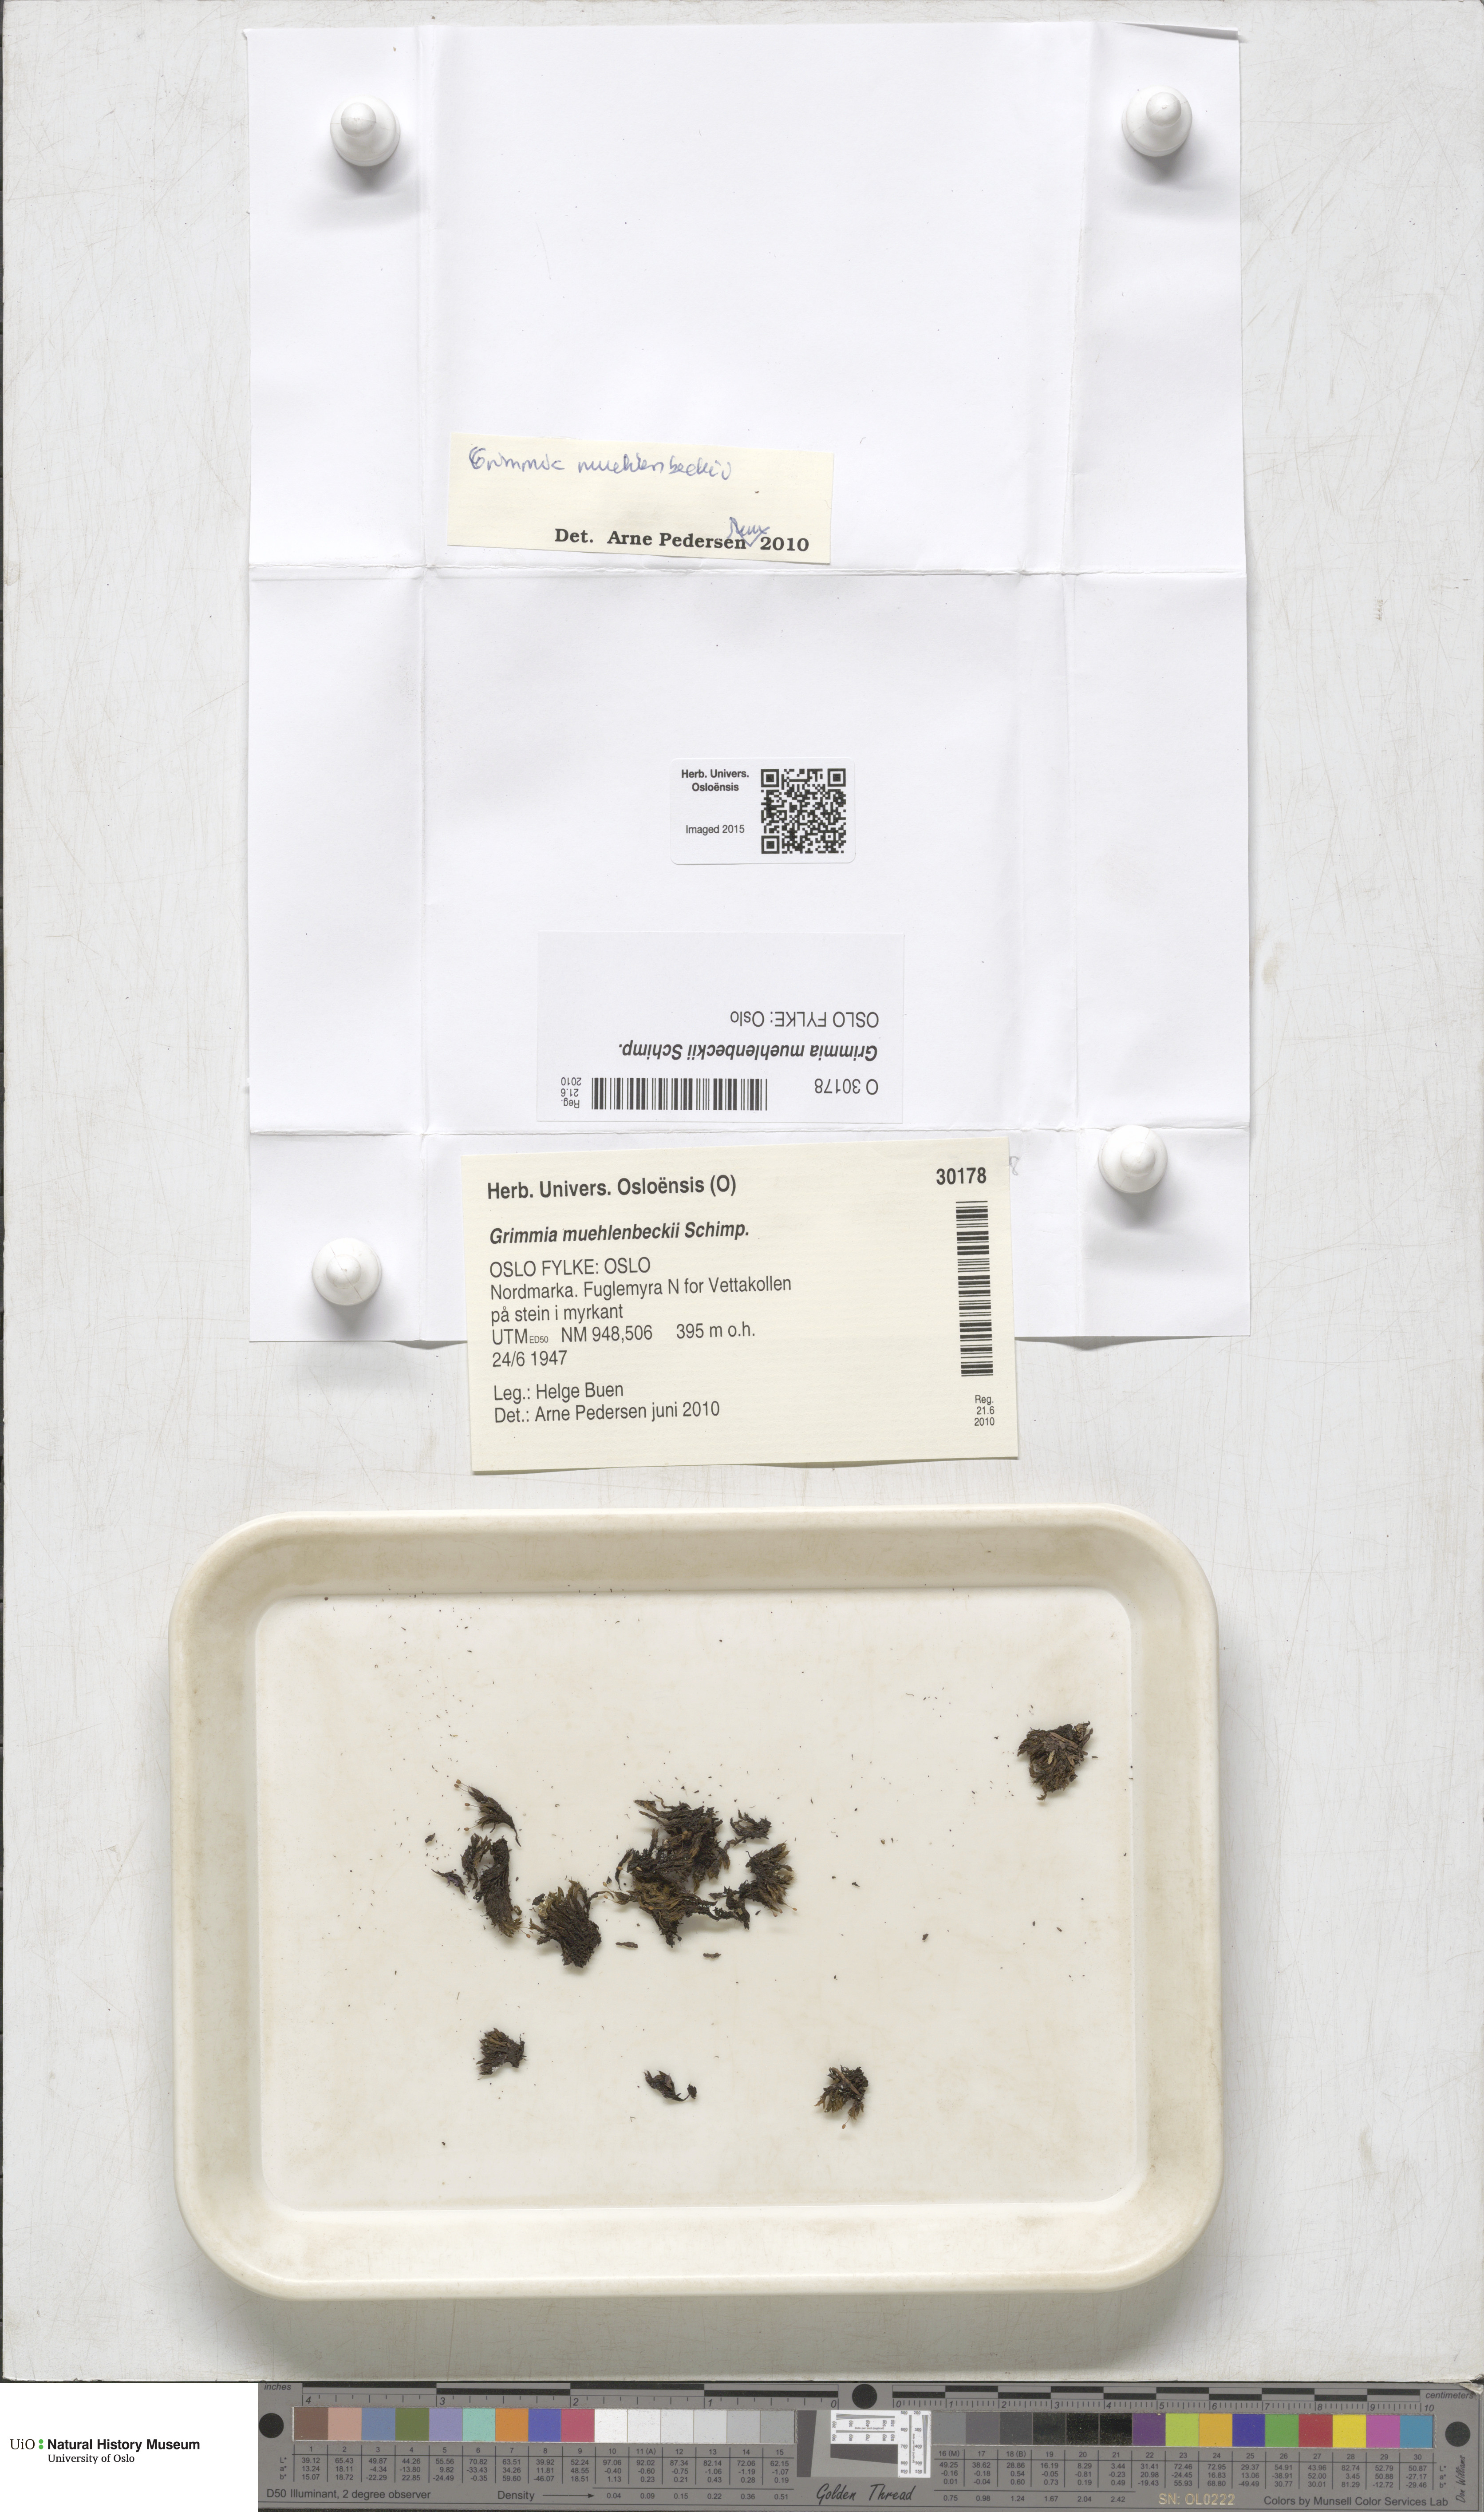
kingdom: Plantae
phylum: Bryophyta
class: Bryopsida
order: Grimmiales
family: Grimmiaceae
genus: Grimmia
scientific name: Grimmia muehlenbeckii
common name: Muehlenbeck's grimmia
